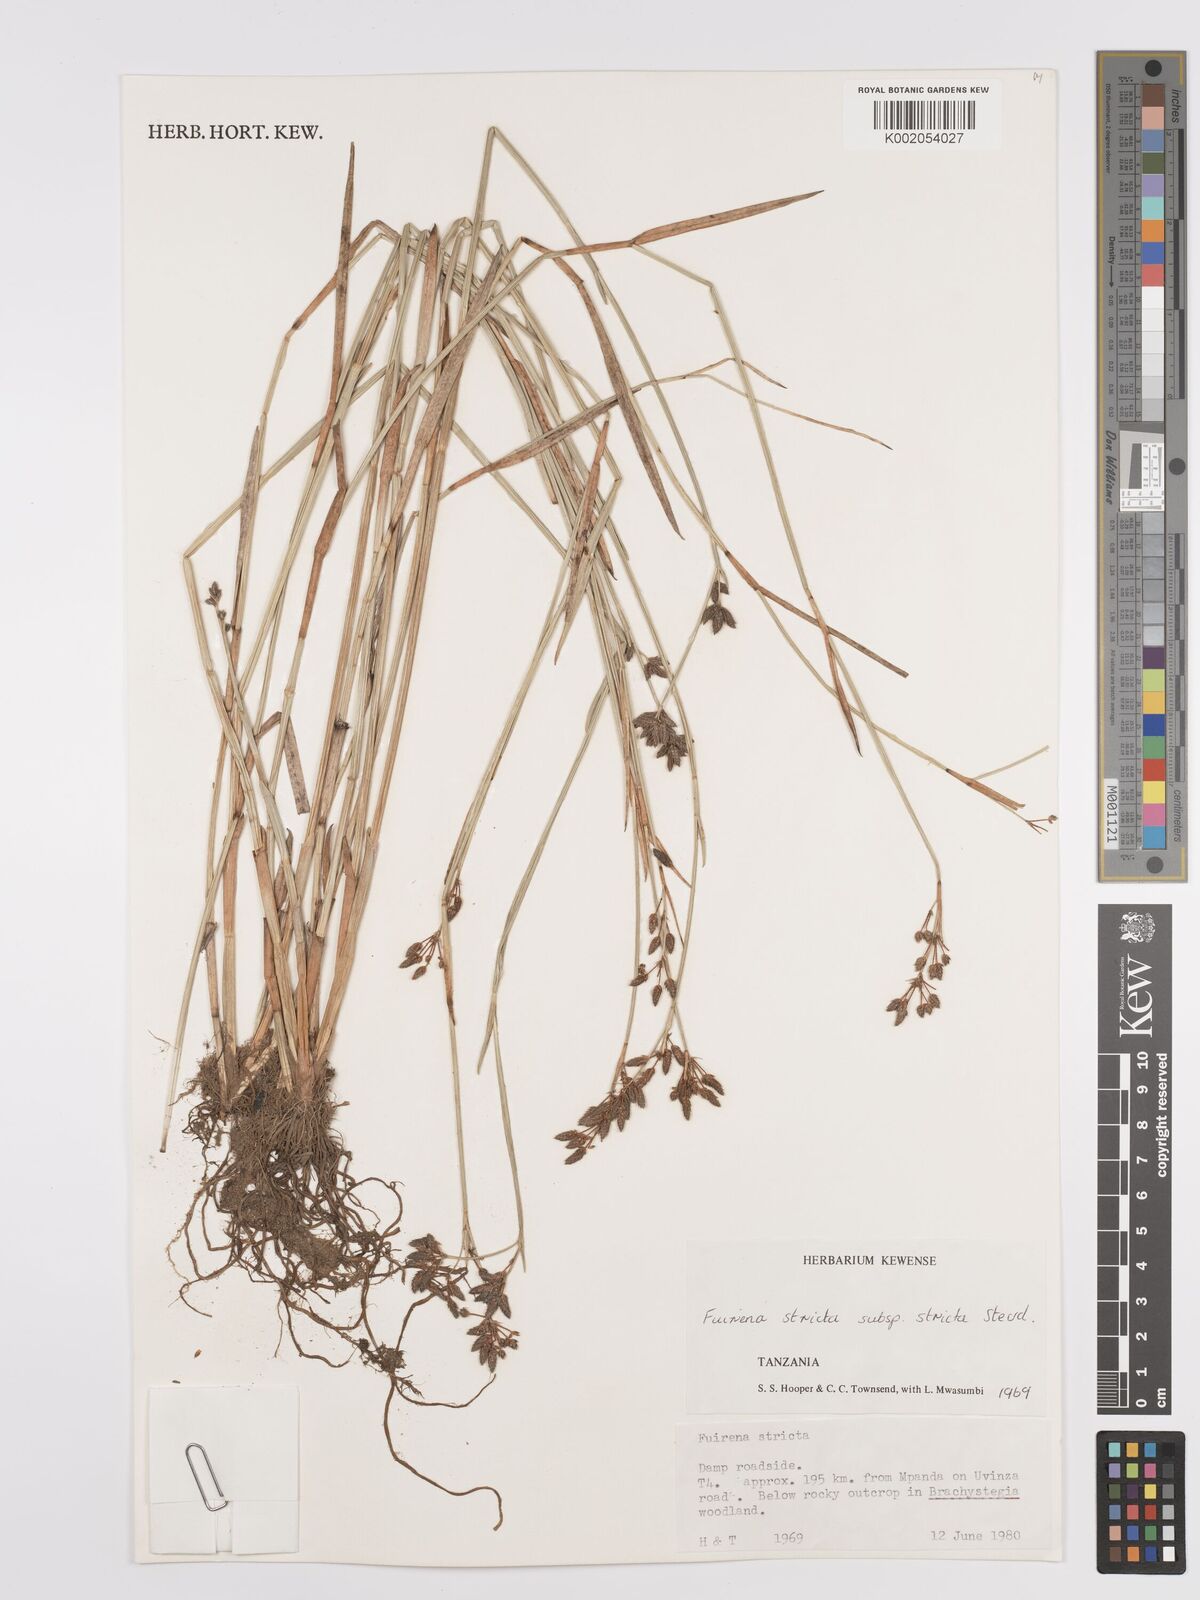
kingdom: Plantae
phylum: Tracheophyta
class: Liliopsida
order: Poales
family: Cyperaceae
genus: Fuirena
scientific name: Fuirena stricta
